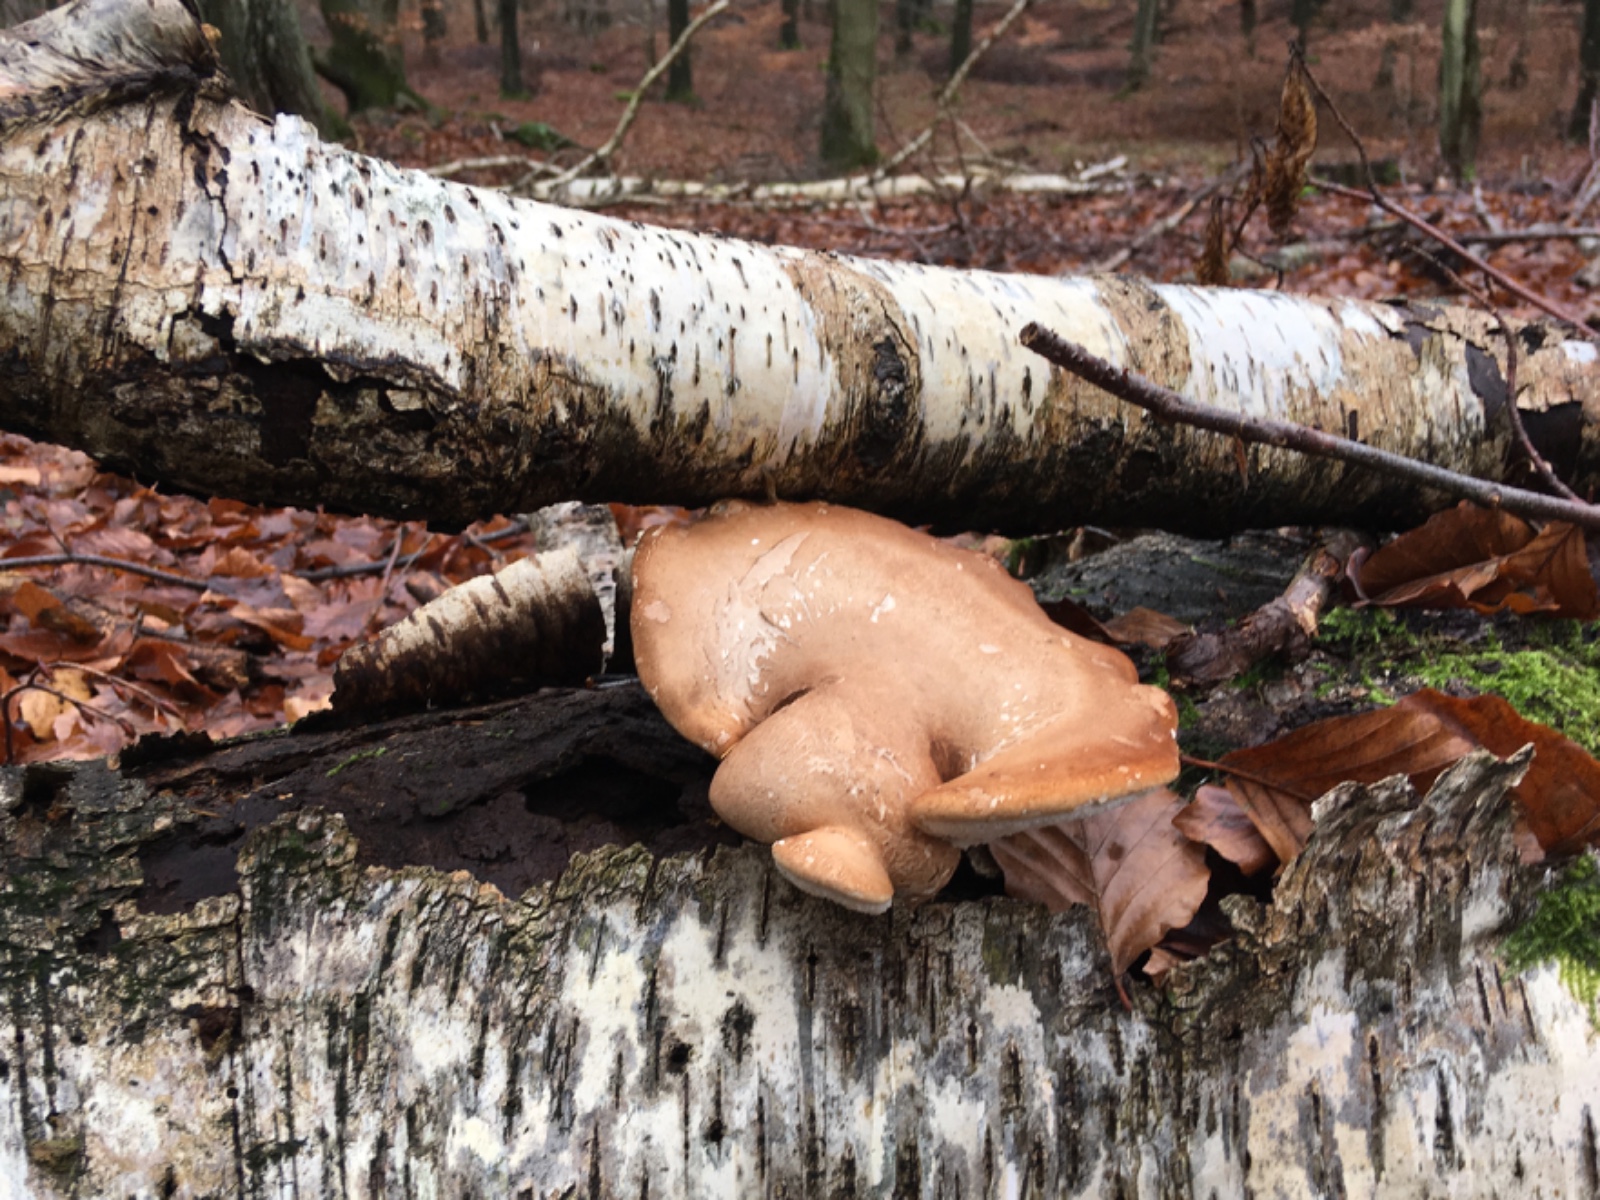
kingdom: Fungi
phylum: Basidiomycota
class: Agaricomycetes
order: Polyporales
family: Fomitopsidaceae
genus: Fomitopsis
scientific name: Fomitopsis betulina
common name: birkeporesvamp
